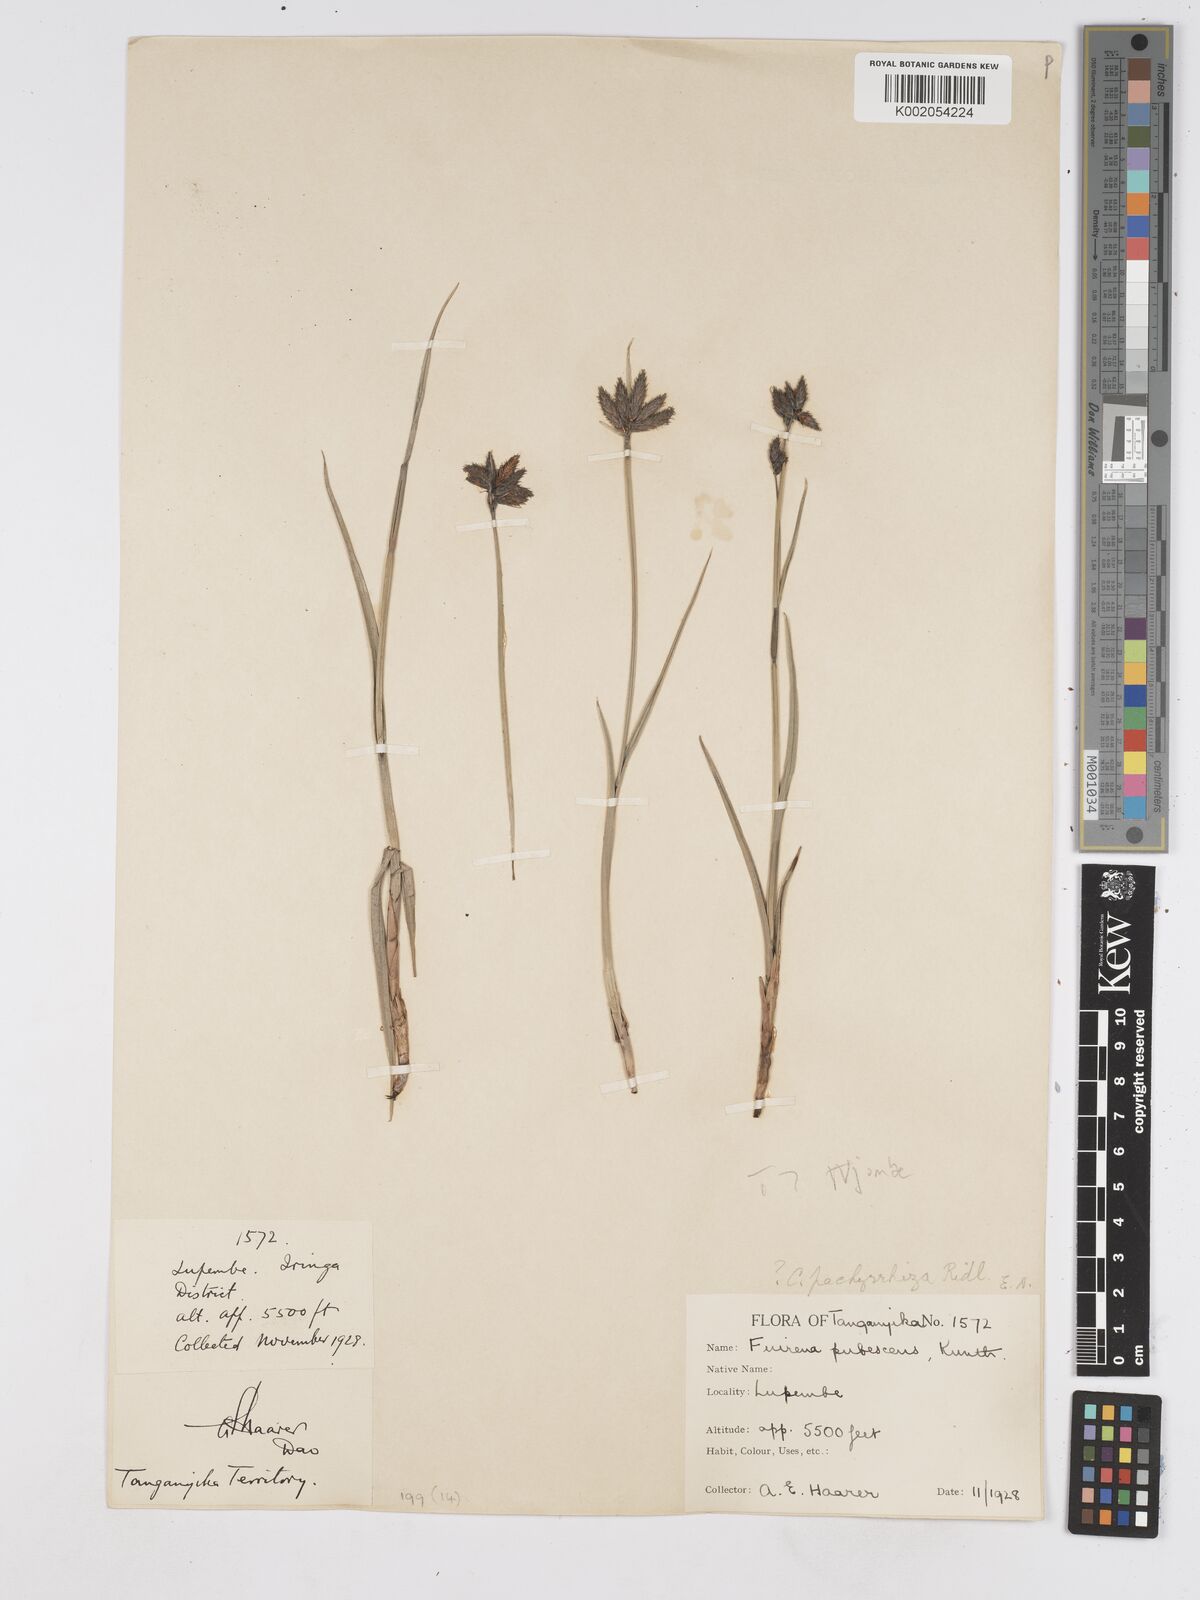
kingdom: Plantae
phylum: Tracheophyta
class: Liliopsida
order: Poales
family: Cyperaceae
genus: Fuirena
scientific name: Fuirena welwitschii
